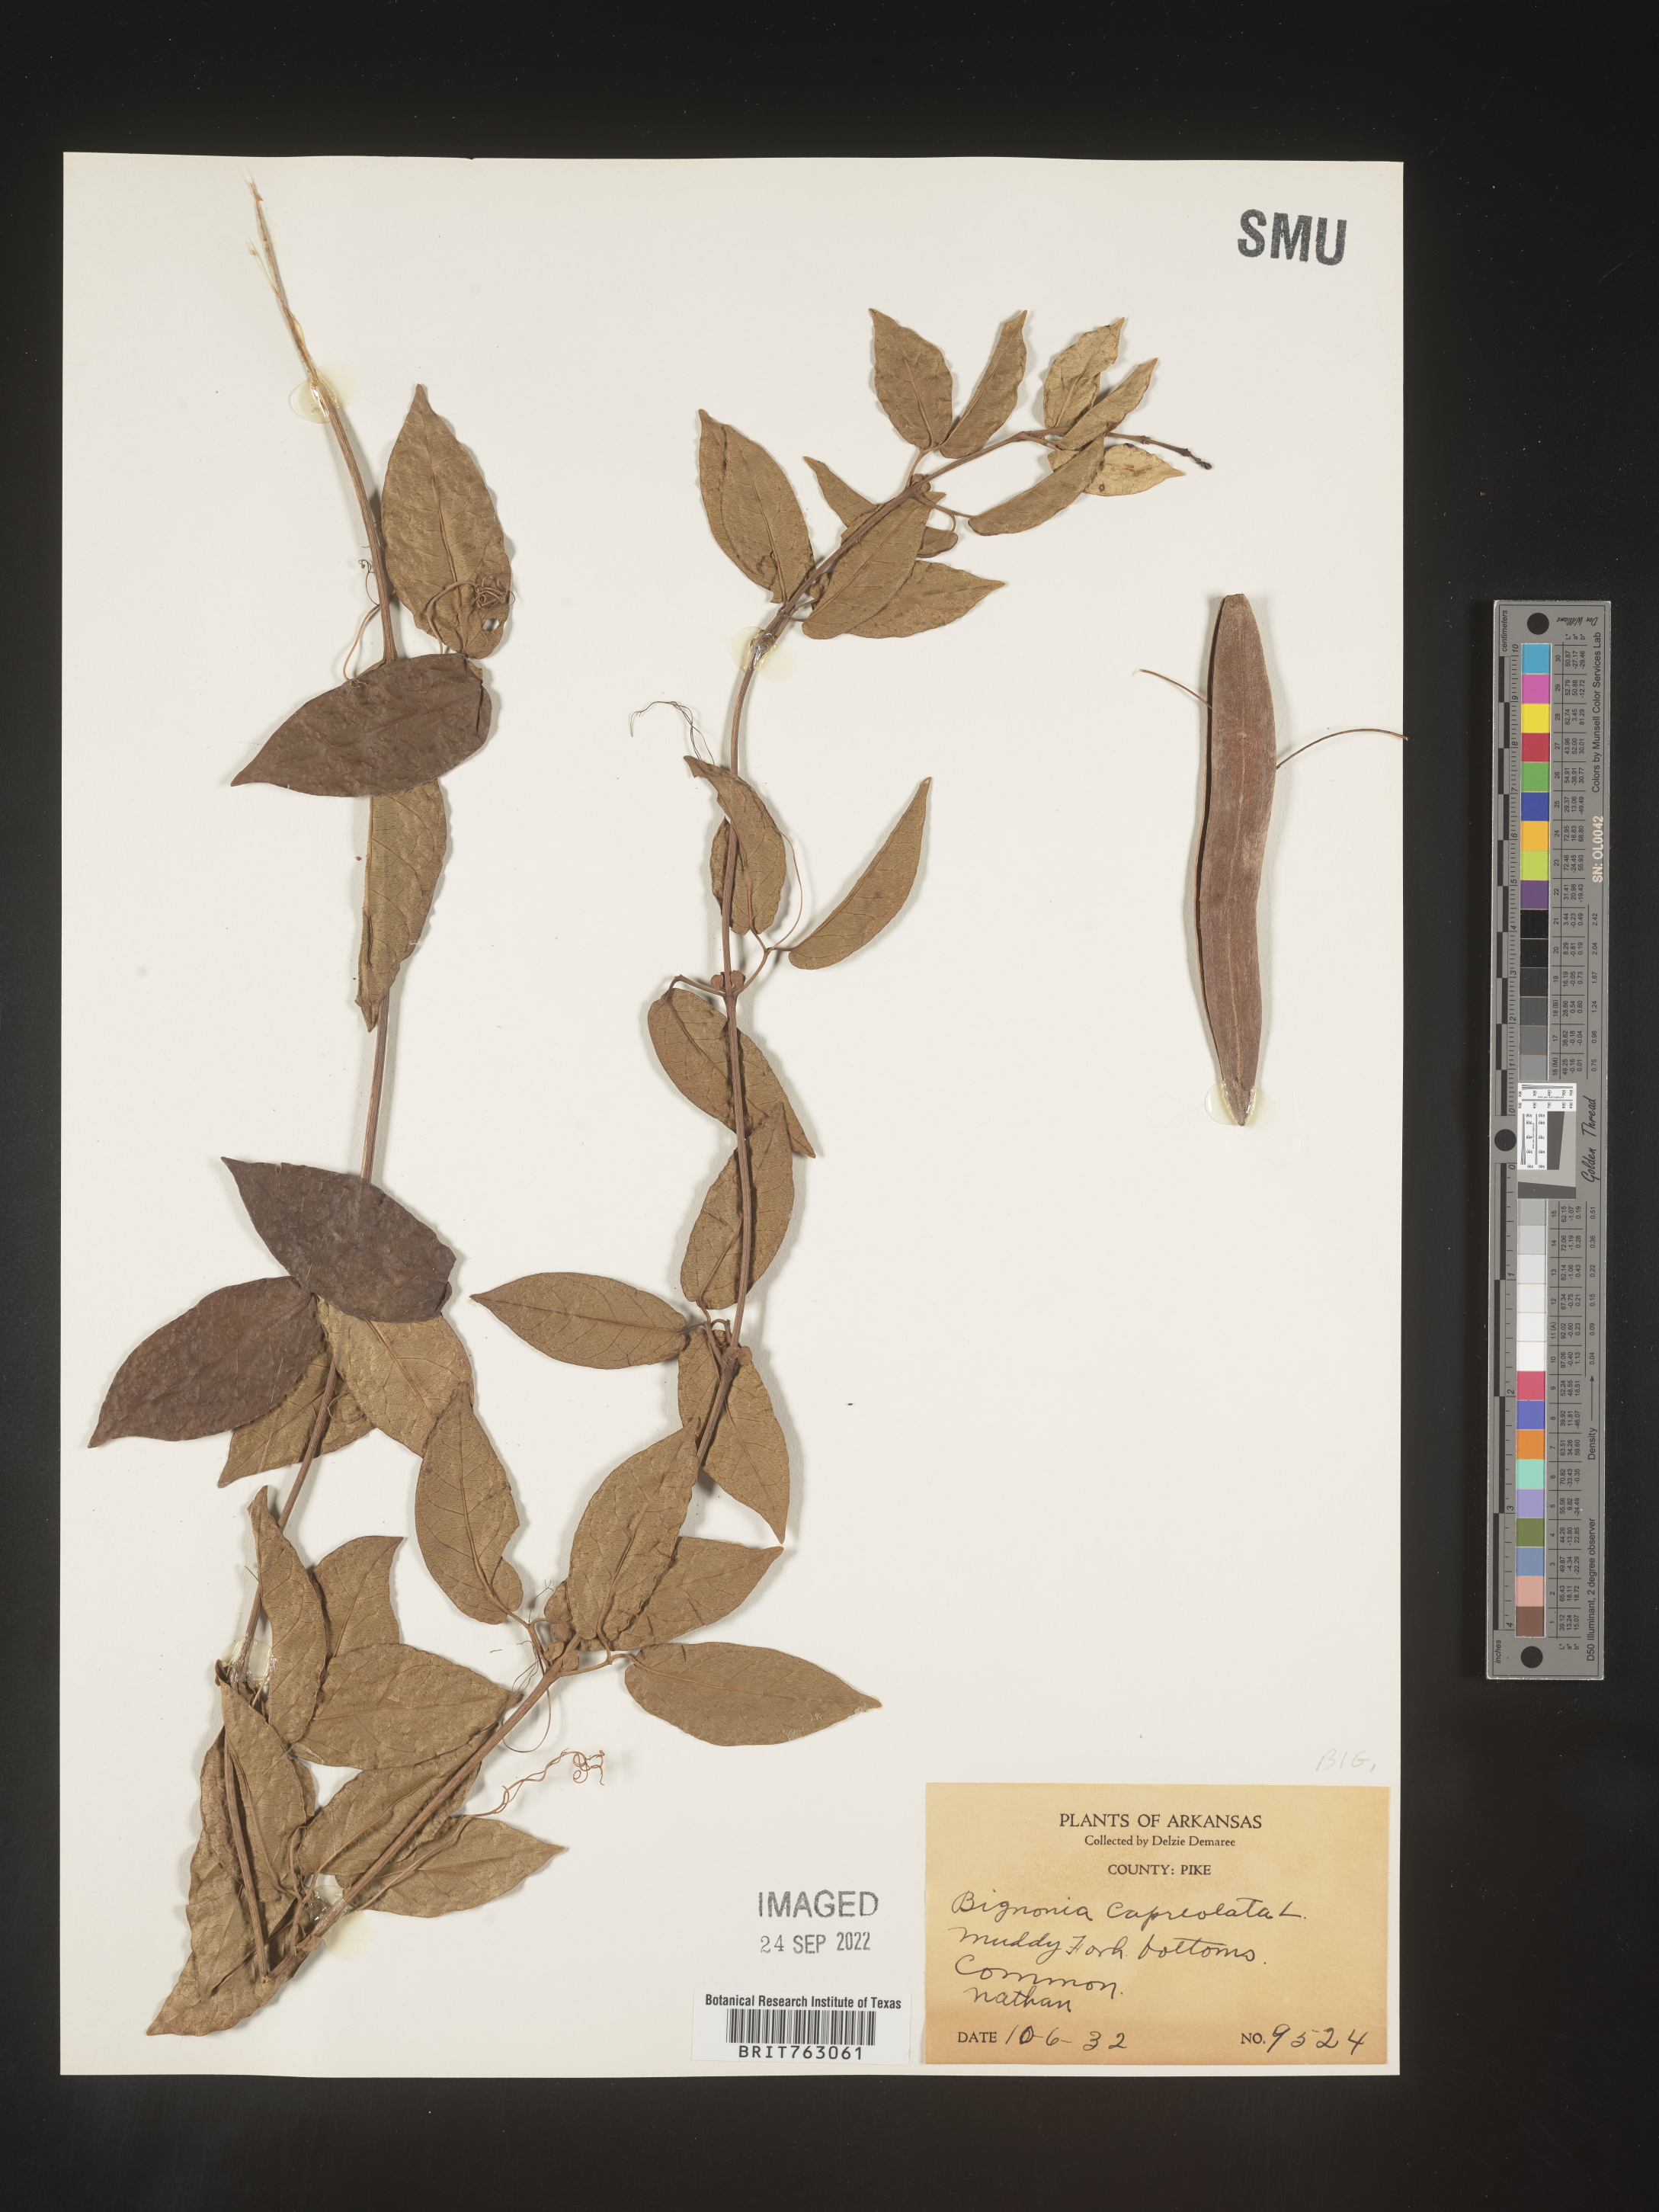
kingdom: Plantae
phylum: Tracheophyta
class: Magnoliopsida
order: Lamiales
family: Bignoniaceae
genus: Bignonia
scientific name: Bignonia capreolata
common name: Crossvine
